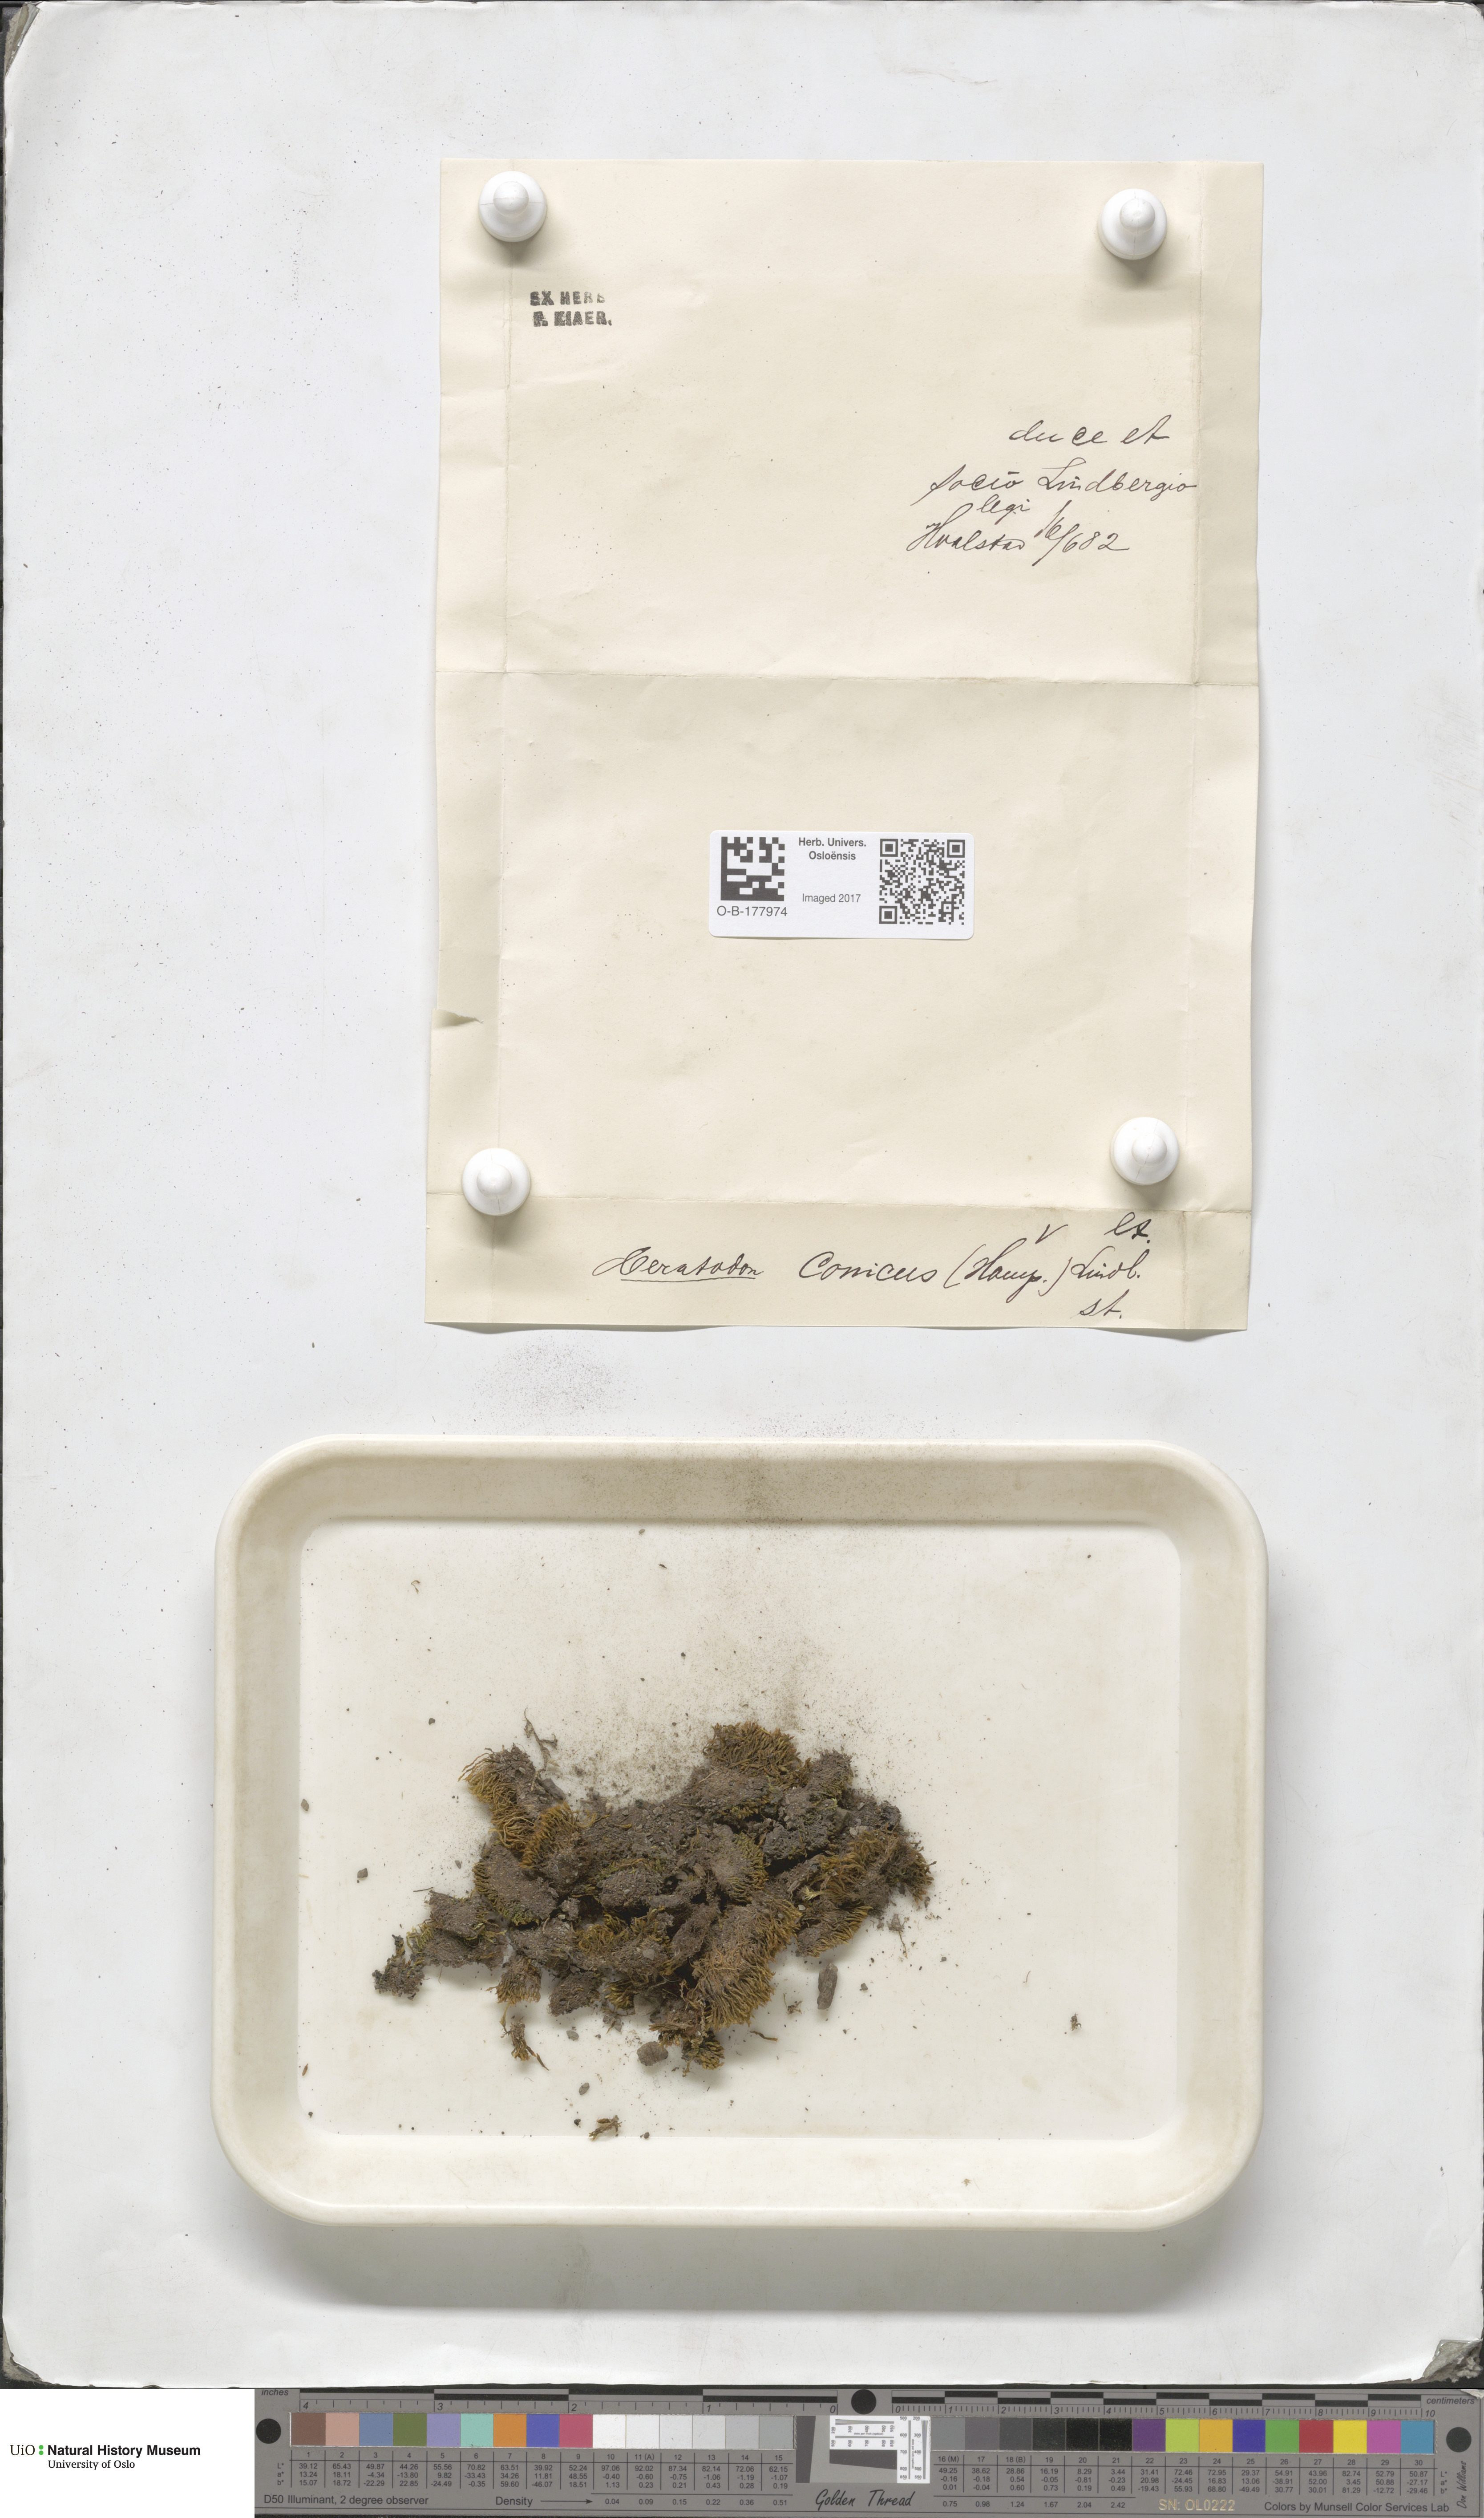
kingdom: Plantae
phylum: Bryophyta
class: Bryopsida
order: Dicranales
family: Ditrichaceae
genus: Ceratodon
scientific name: Ceratodon purpureus
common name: Redshank
